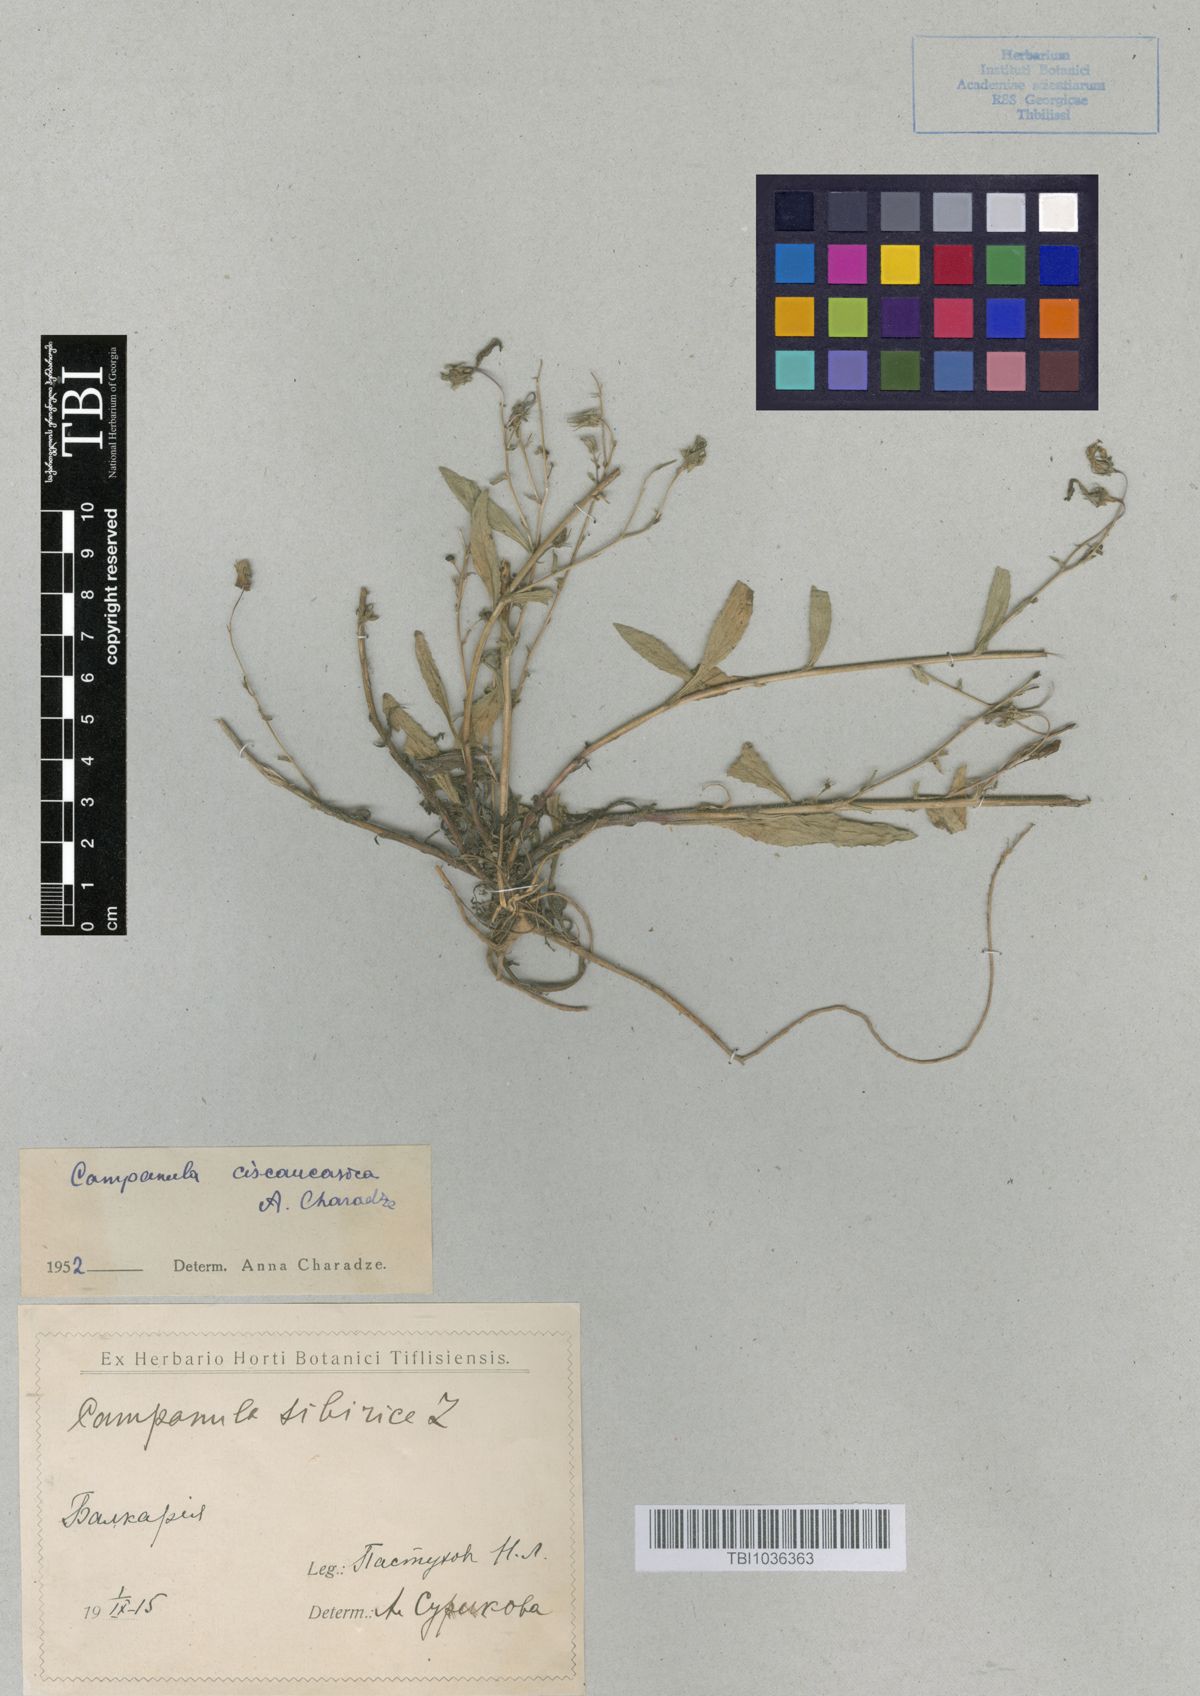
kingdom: Plantae
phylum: Tracheophyta
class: Magnoliopsida
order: Asterales
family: Campanulaceae
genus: Campanula
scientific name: Campanula sibirica
